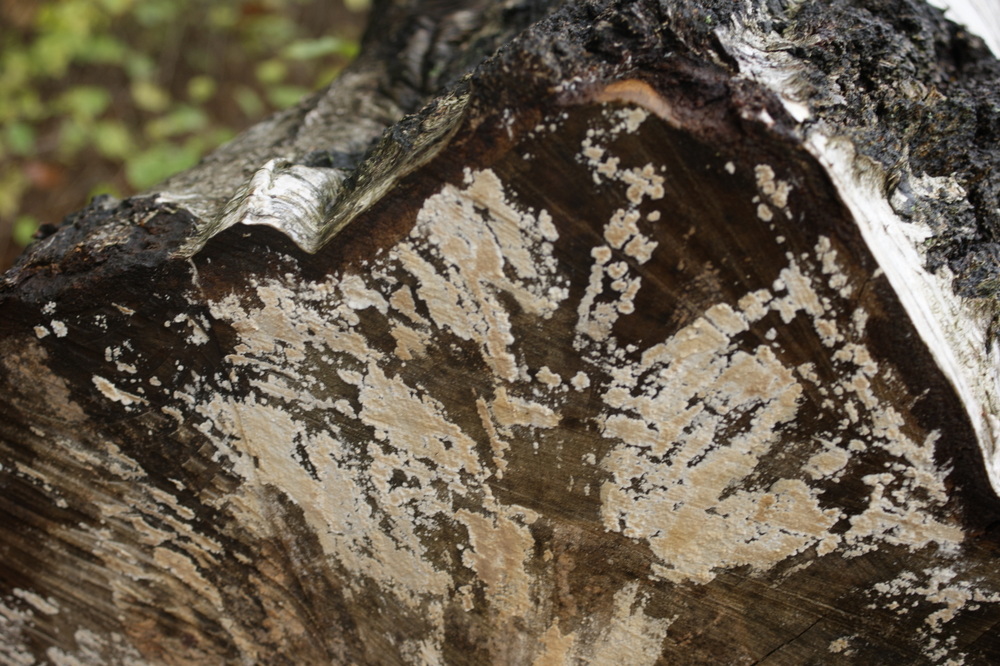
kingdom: Fungi
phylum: Basidiomycota
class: Agaricomycetes
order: Agaricales
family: Physalacriaceae
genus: Cylindrobasidium
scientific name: Cylindrobasidium evolvens
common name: sprækkehinde
